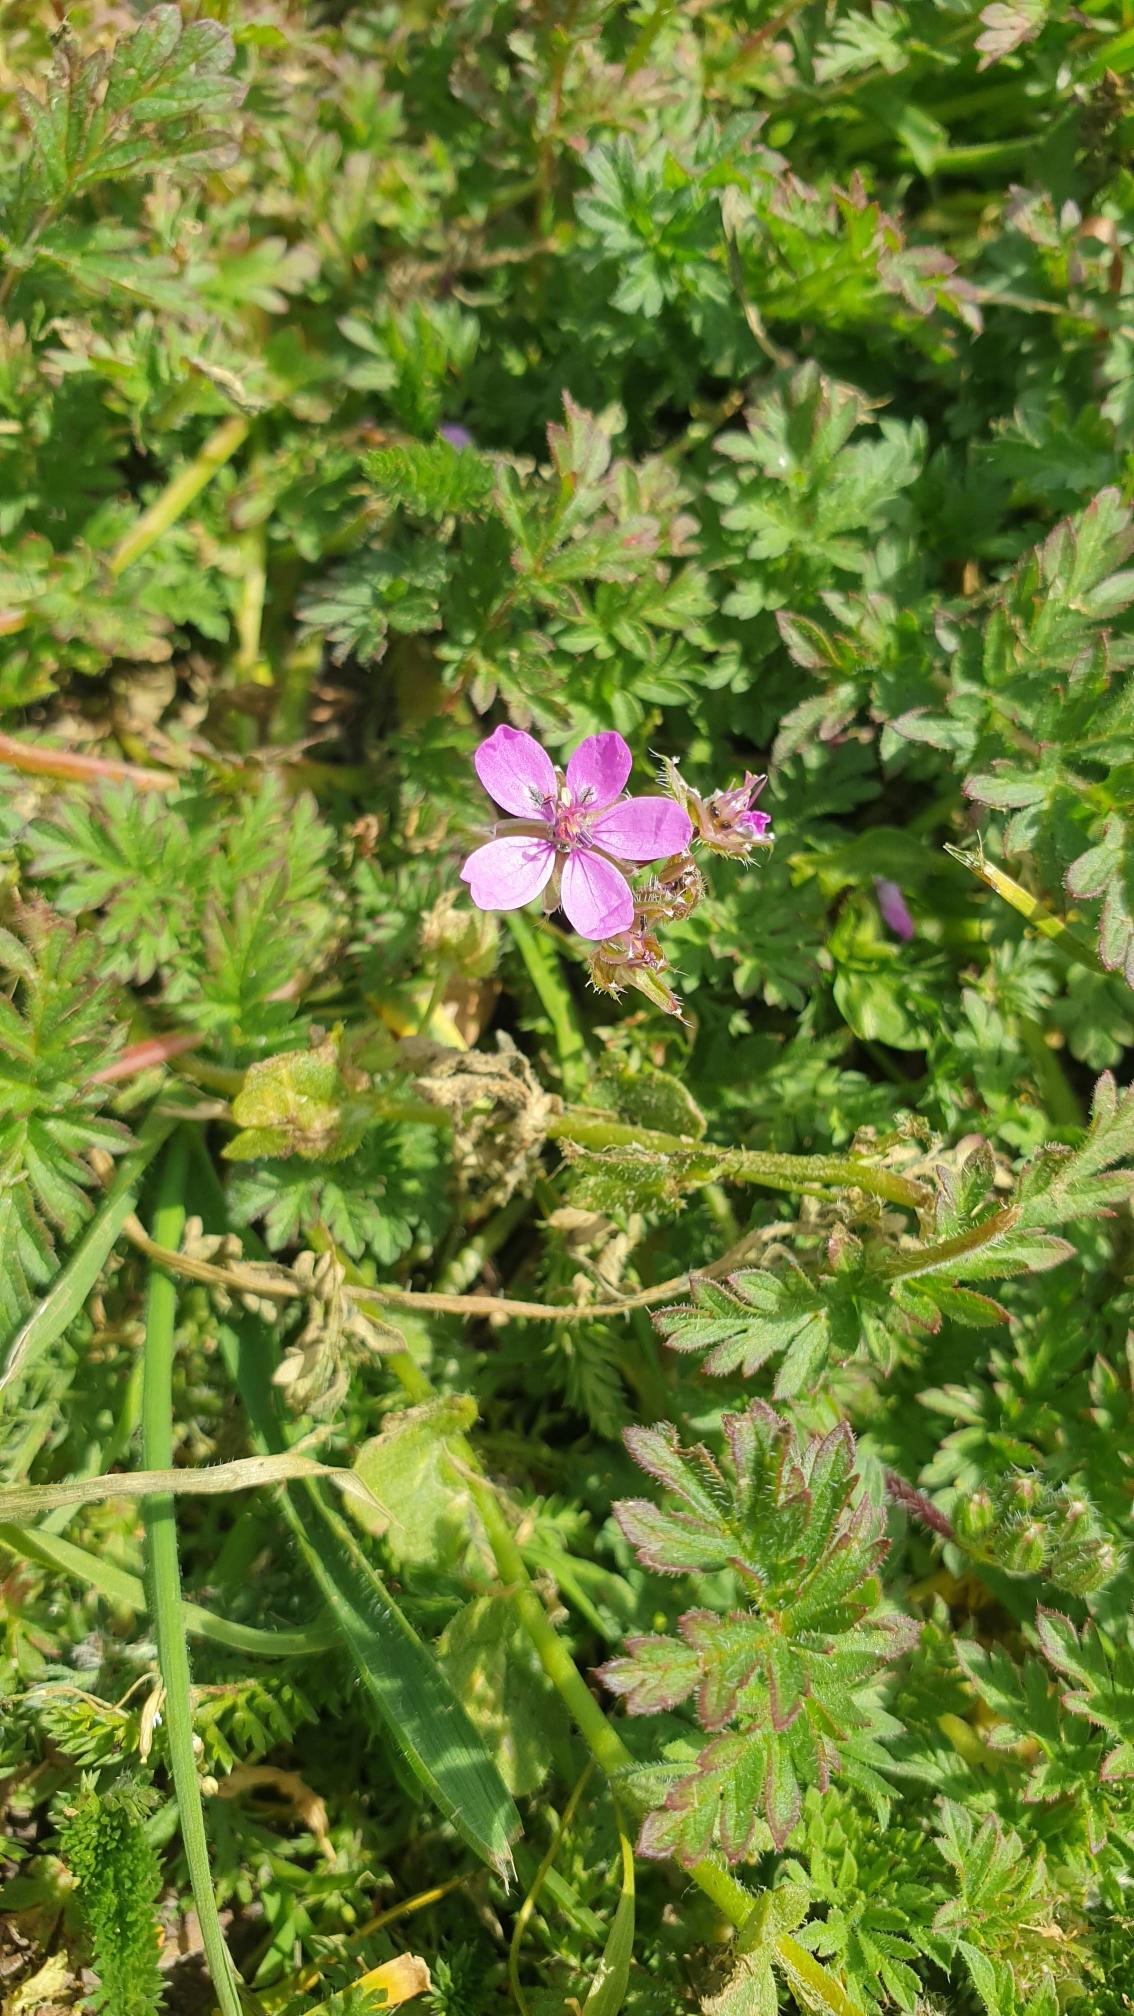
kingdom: Plantae
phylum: Tracheophyta
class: Magnoliopsida
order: Geraniales
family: Geraniaceae
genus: Erodium
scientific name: Erodium cicutarium
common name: Hejrenæb
